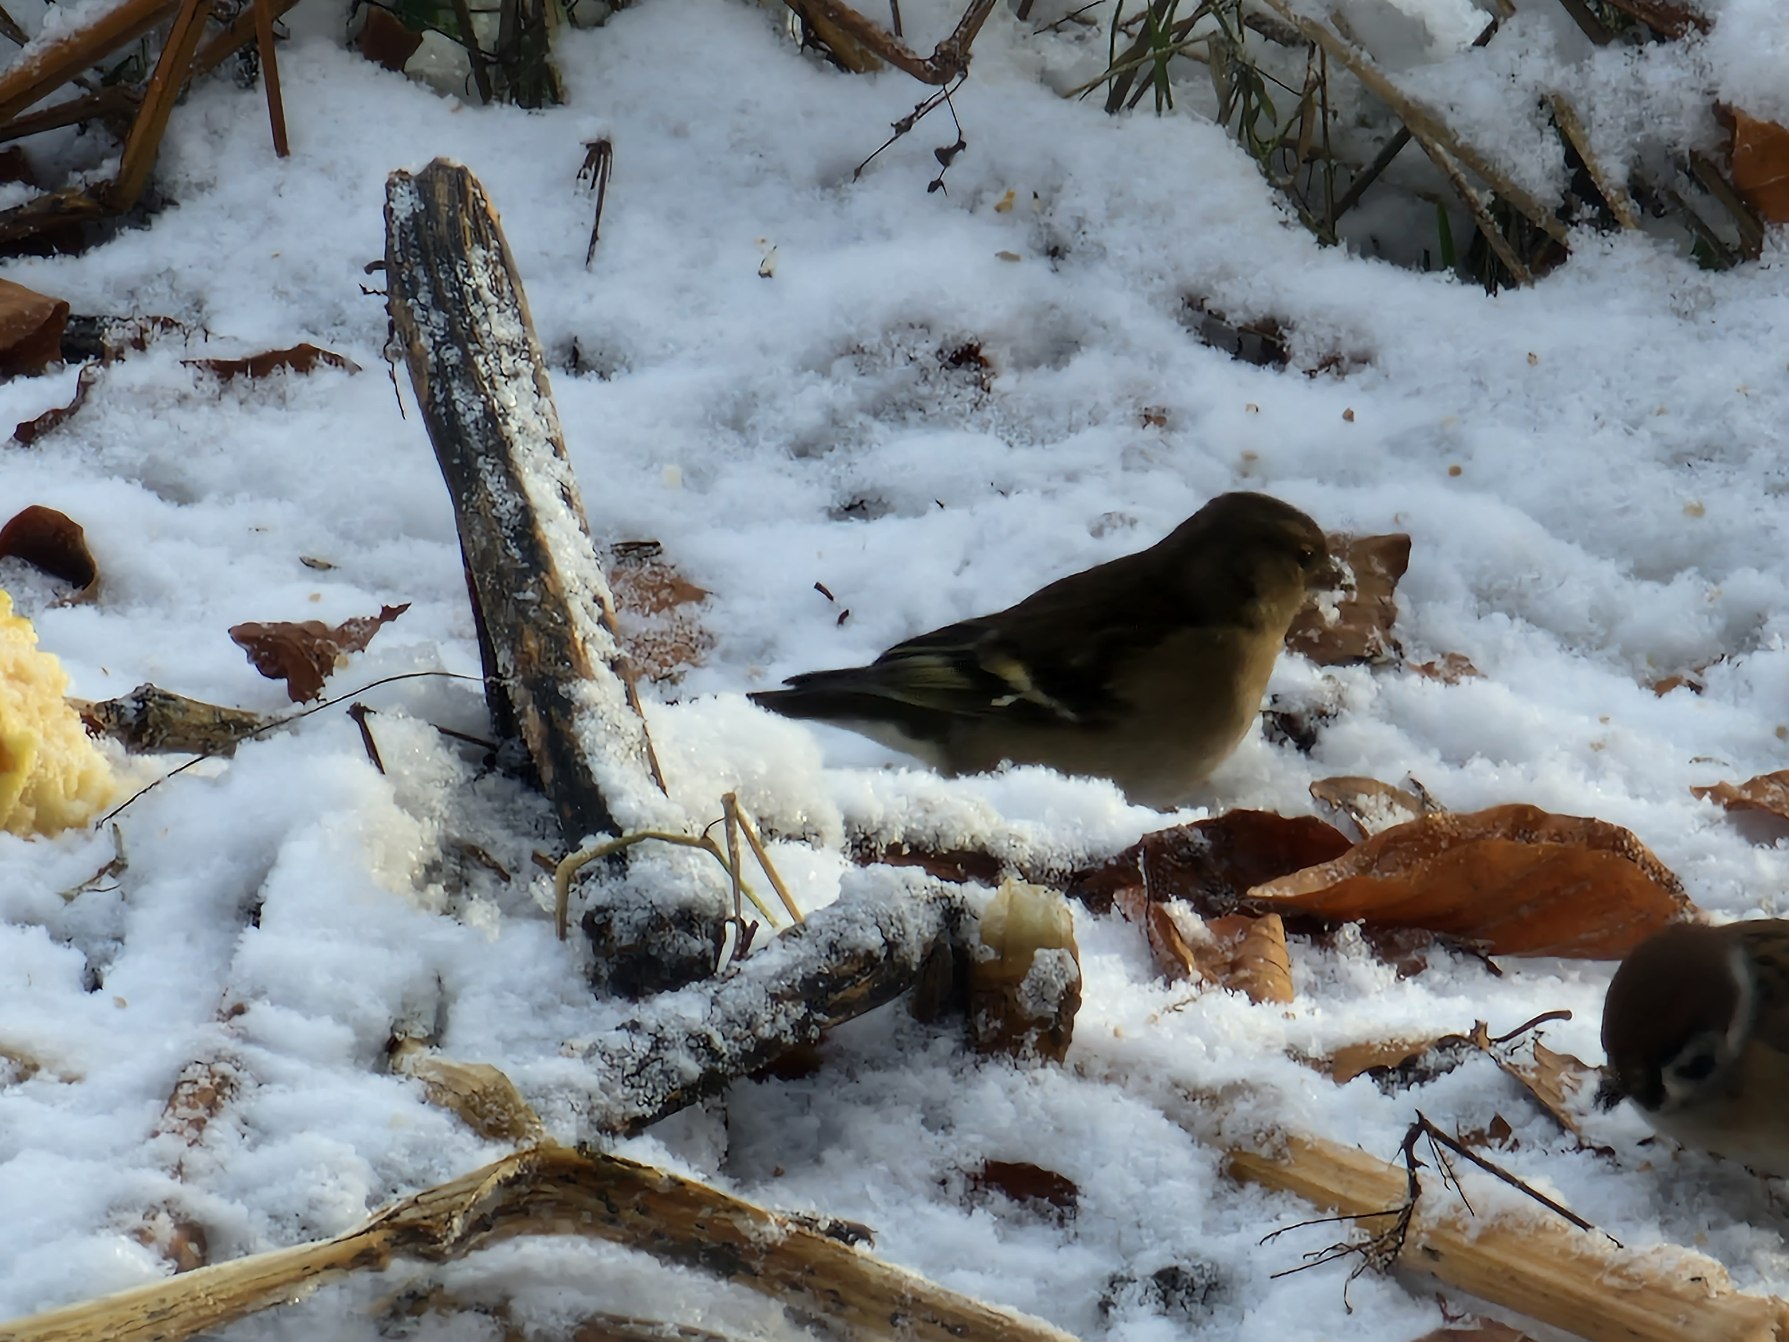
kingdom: Animalia
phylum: Chordata
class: Aves
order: Passeriformes
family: Fringillidae
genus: Fringilla
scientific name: Fringilla coelebs
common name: Bogfinke
